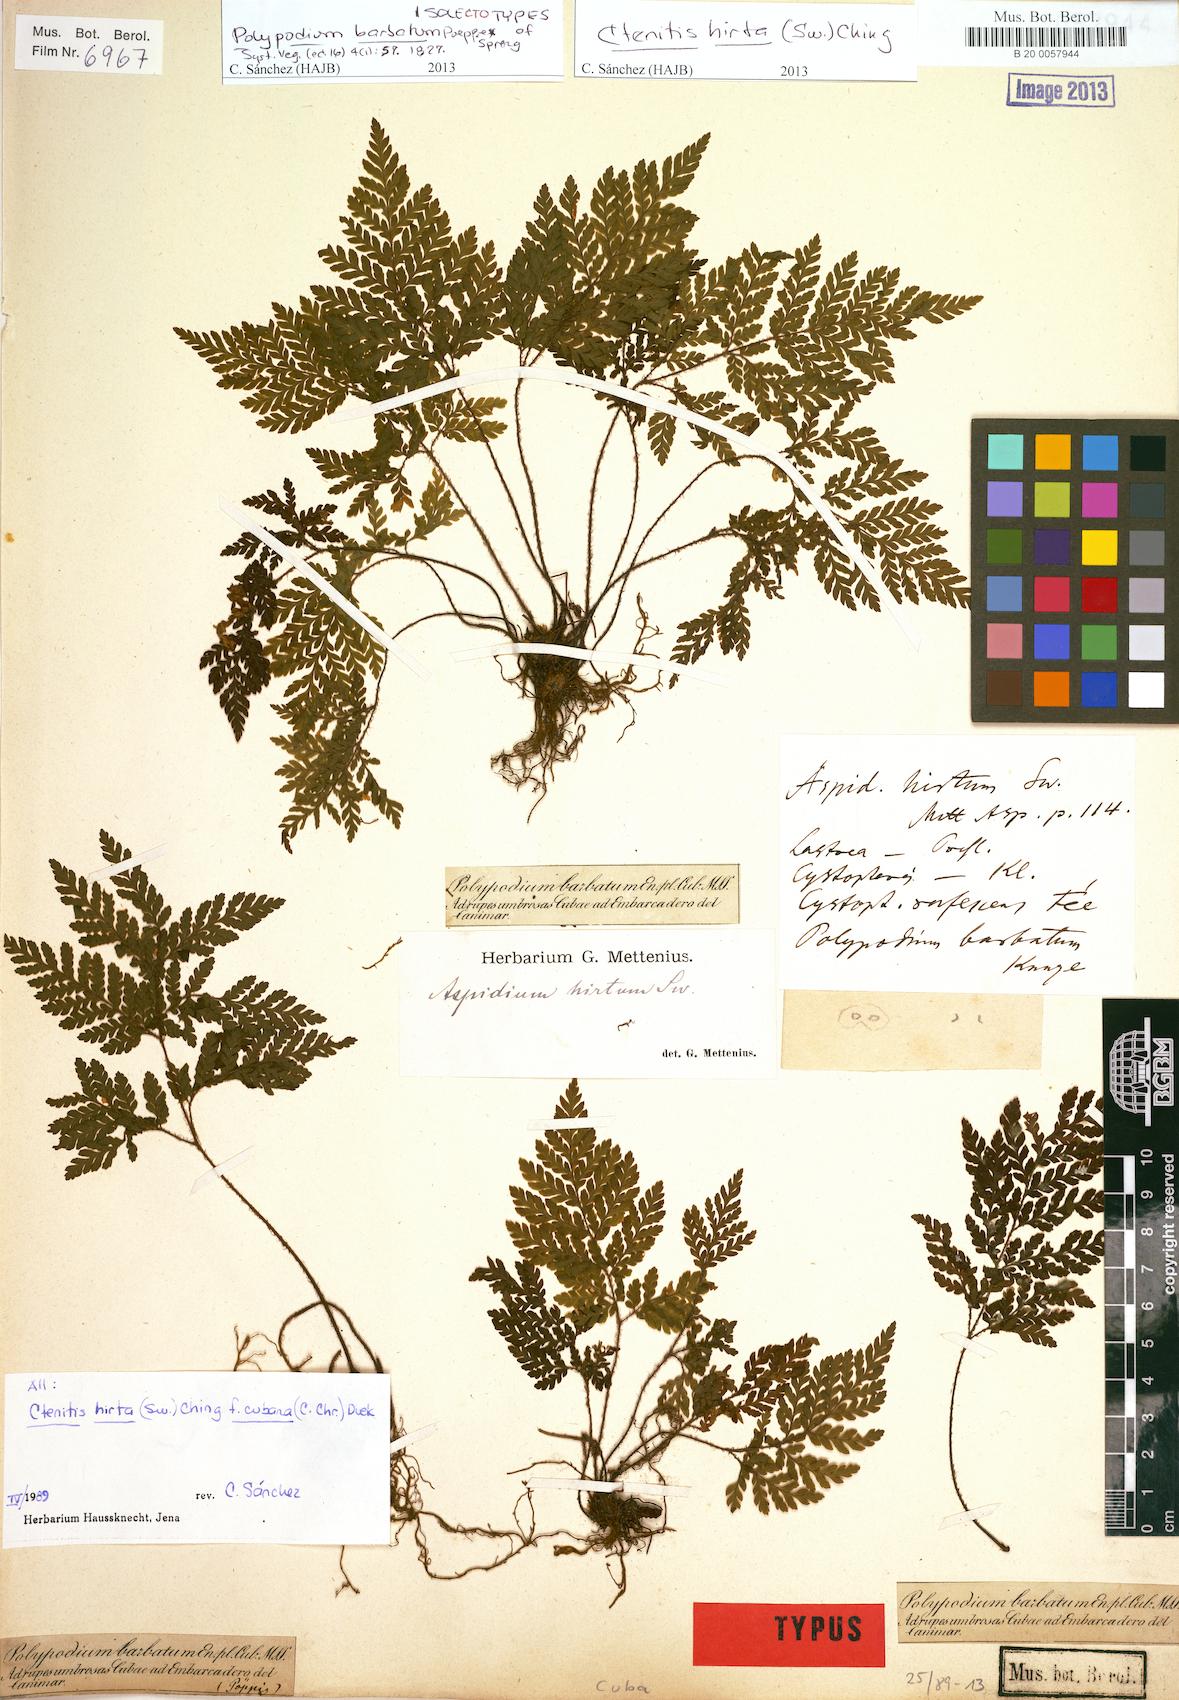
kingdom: Plantae
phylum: Tracheophyta
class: Polypodiopsida
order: Polypodiales
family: Dryopteridaceae
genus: Ctenitis
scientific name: Ctenitis hirta
